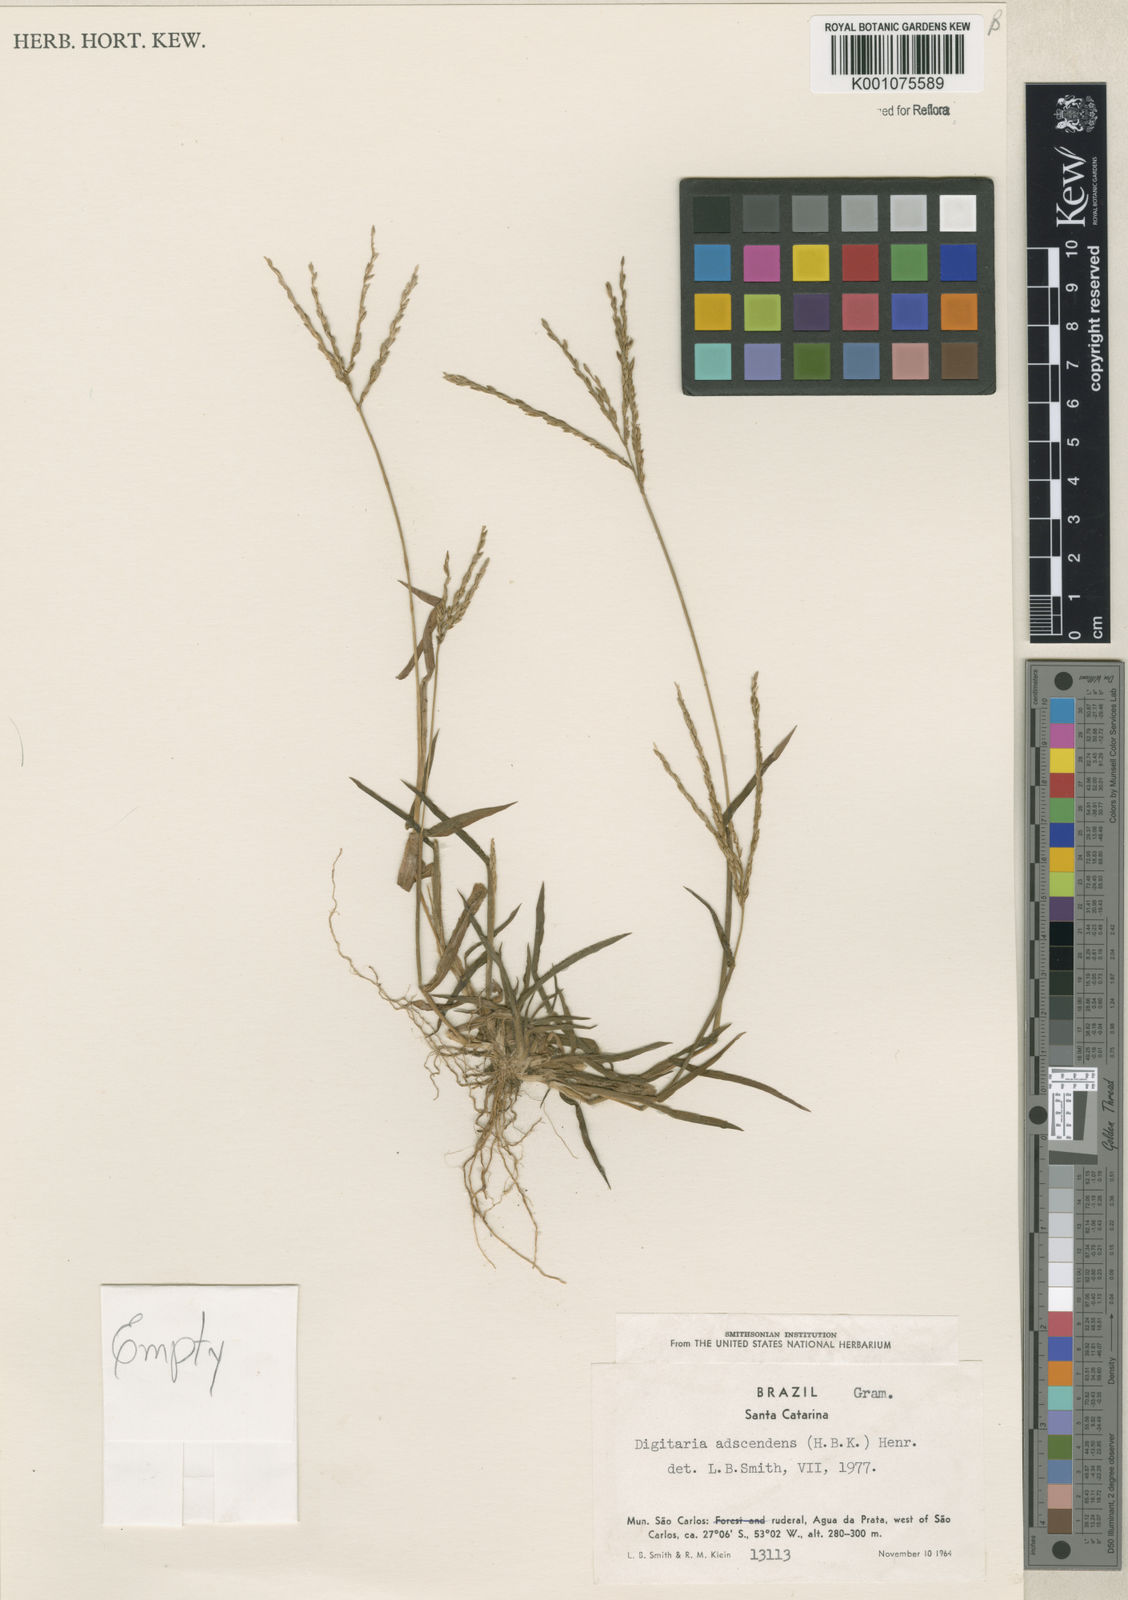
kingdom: Plantae
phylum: Tracheophyta
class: Liliopsida
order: Poales
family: Poaceae
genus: Digitaria
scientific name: Digitaria ciliaris
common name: Tropical finger-grass
